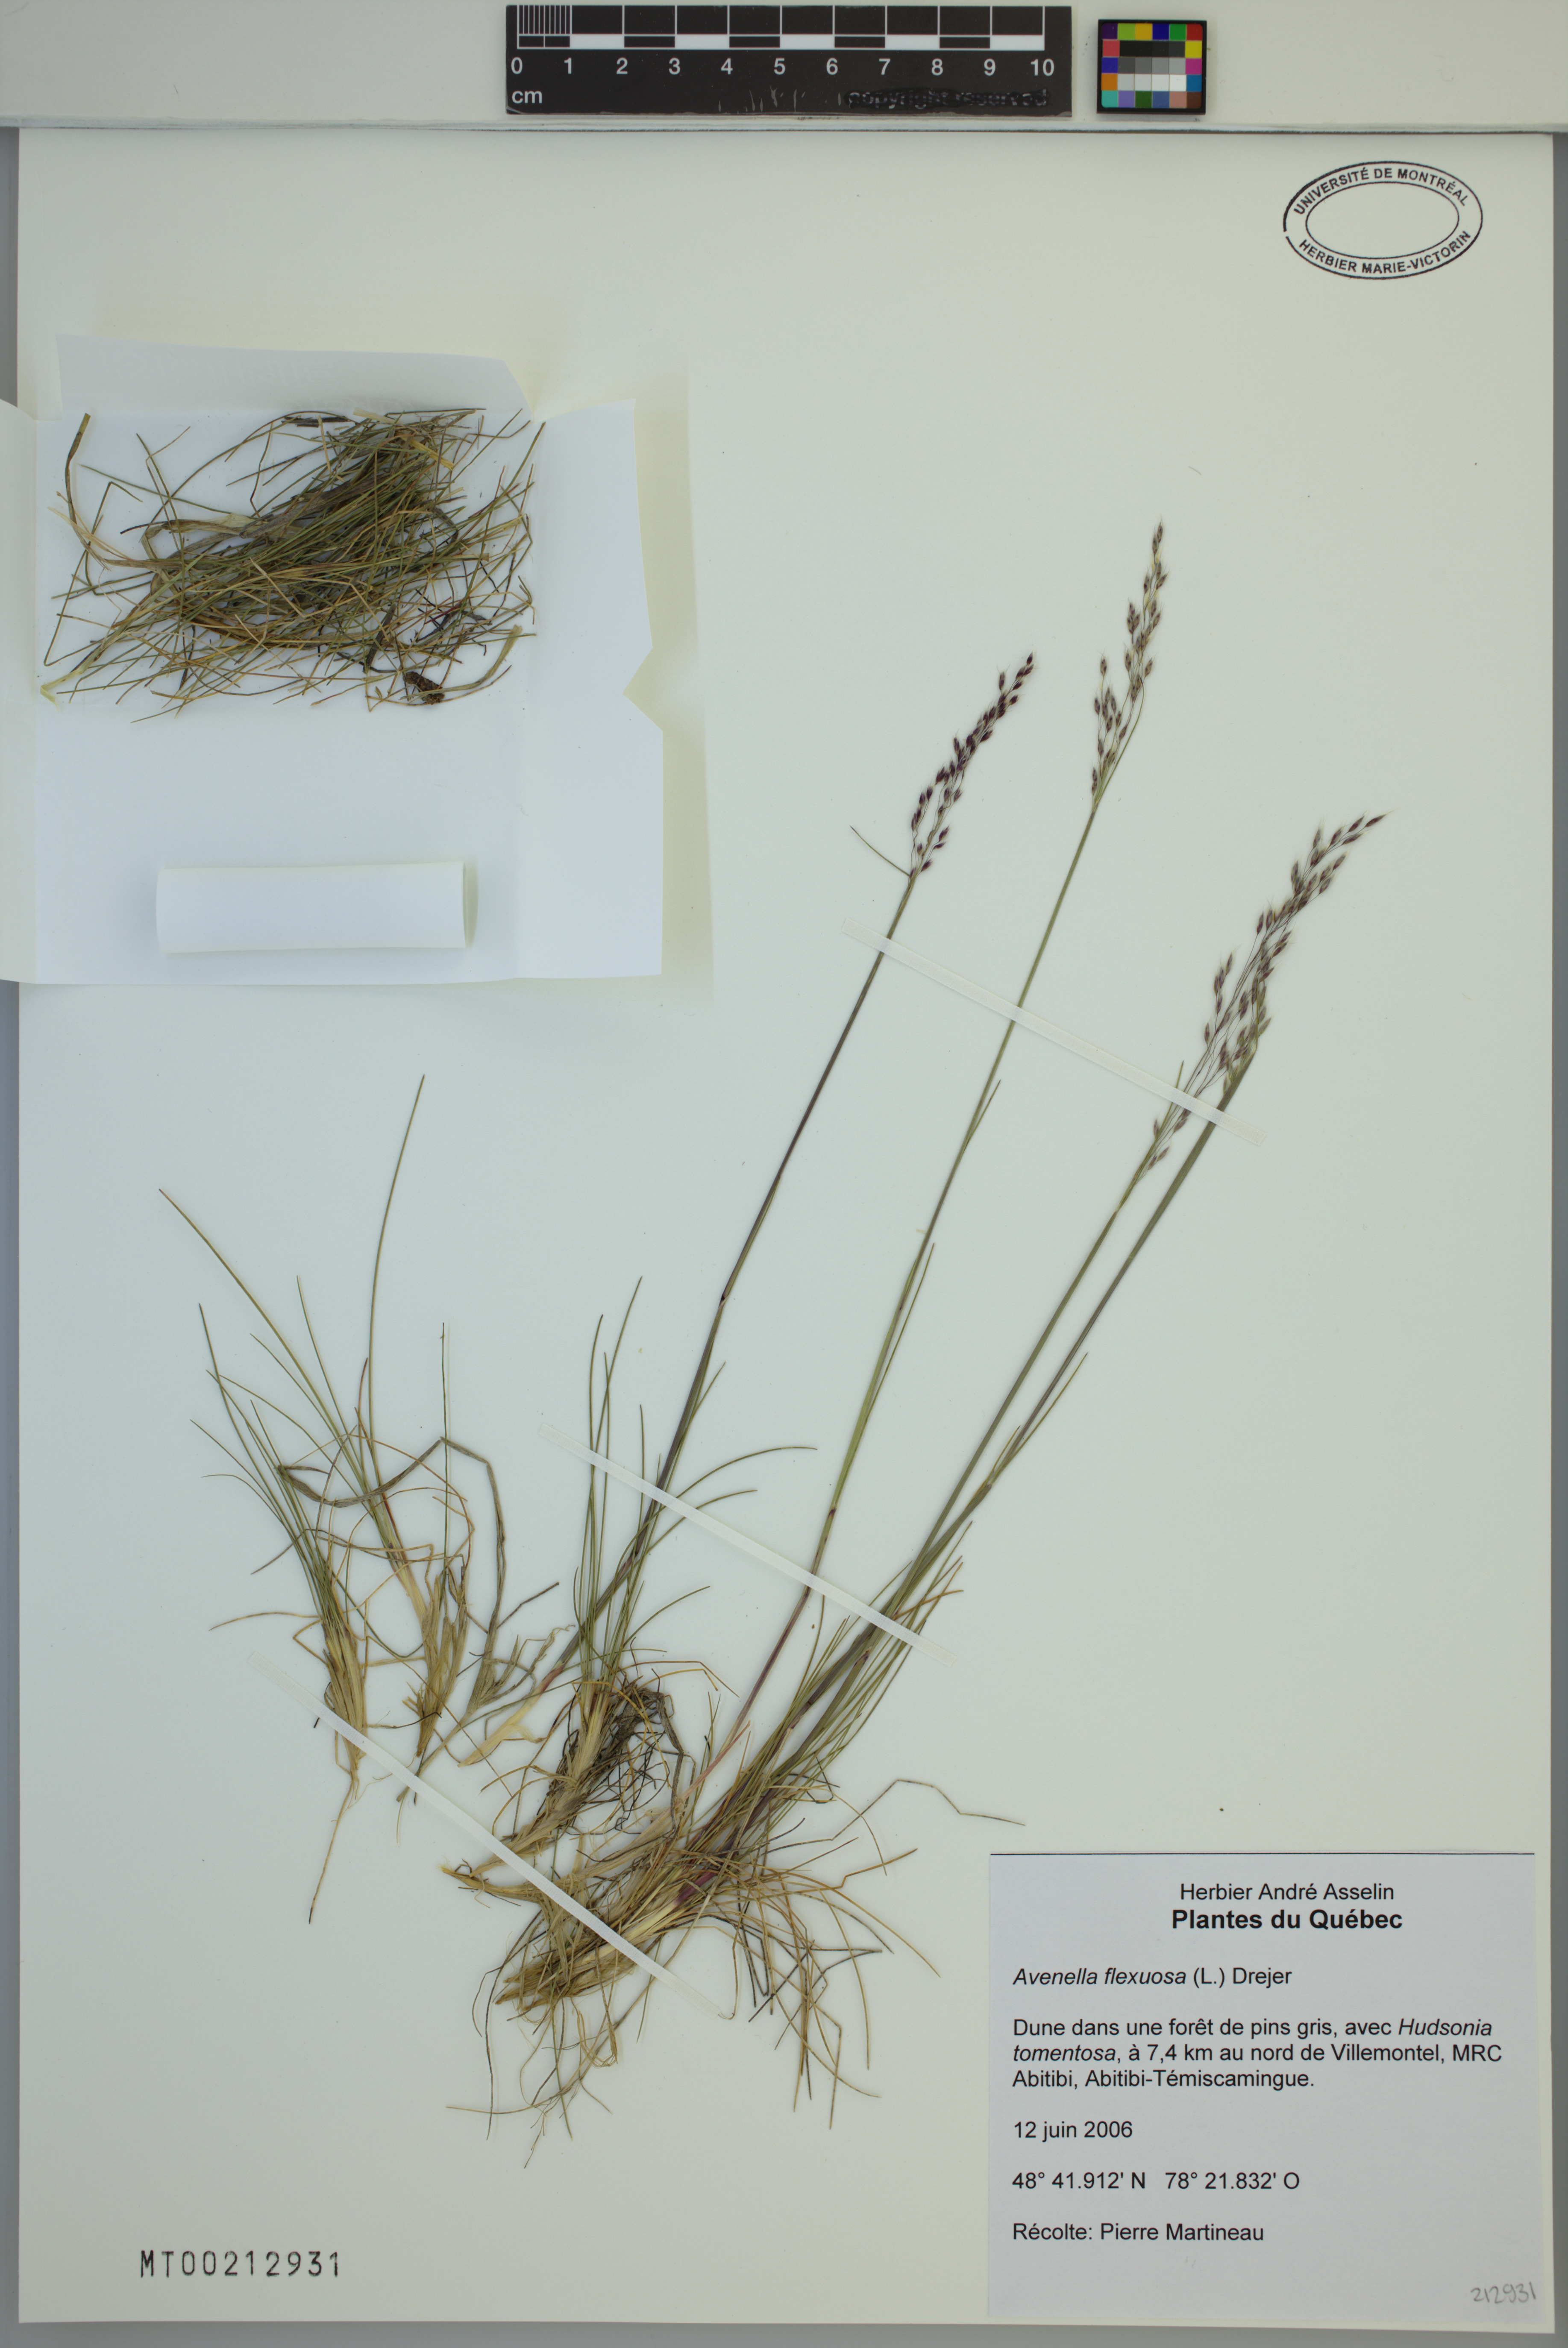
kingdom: Plantae
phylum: Tracheophyta
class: Liliopsida
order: Poales
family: Poaceae
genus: Avenella
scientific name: Avenella flexuosa
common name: Wavy hairgrass
